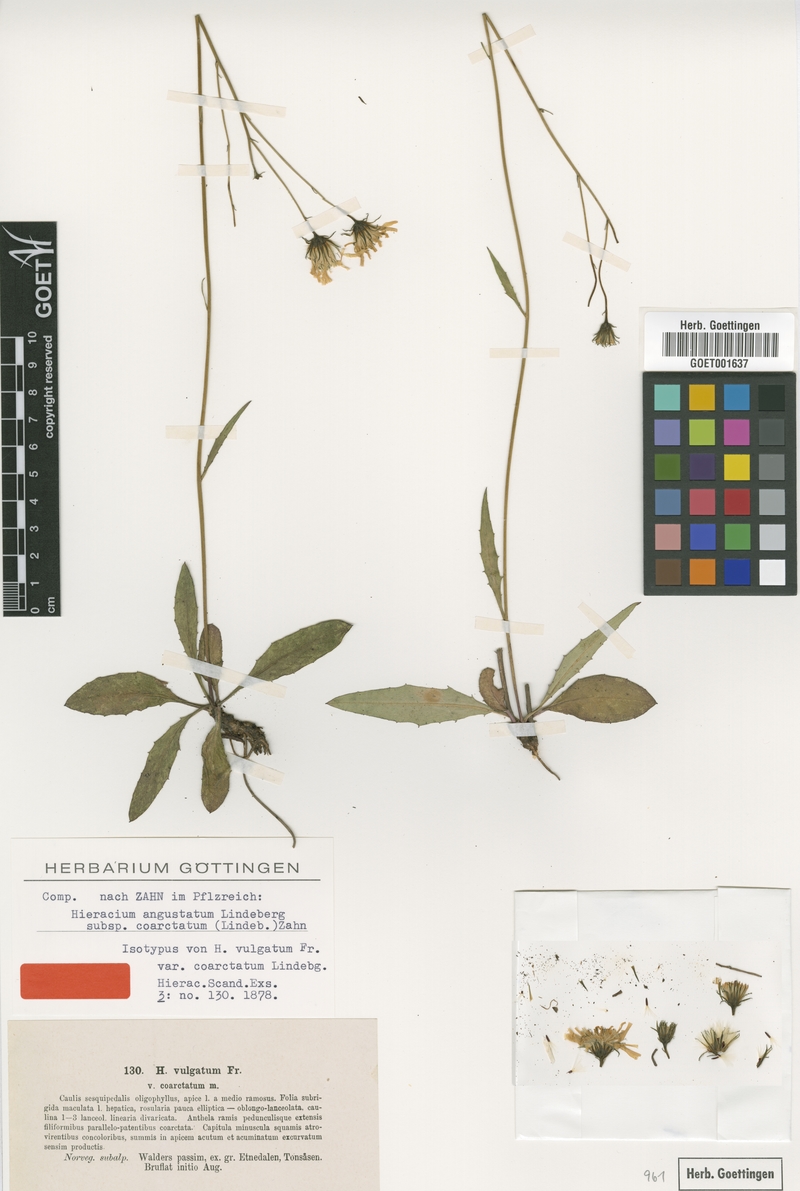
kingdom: Plantae
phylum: Tracheophyta
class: Magnoliopsida
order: Asterales
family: Asteraceae
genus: Hieracium
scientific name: Hieracium laetifolium
